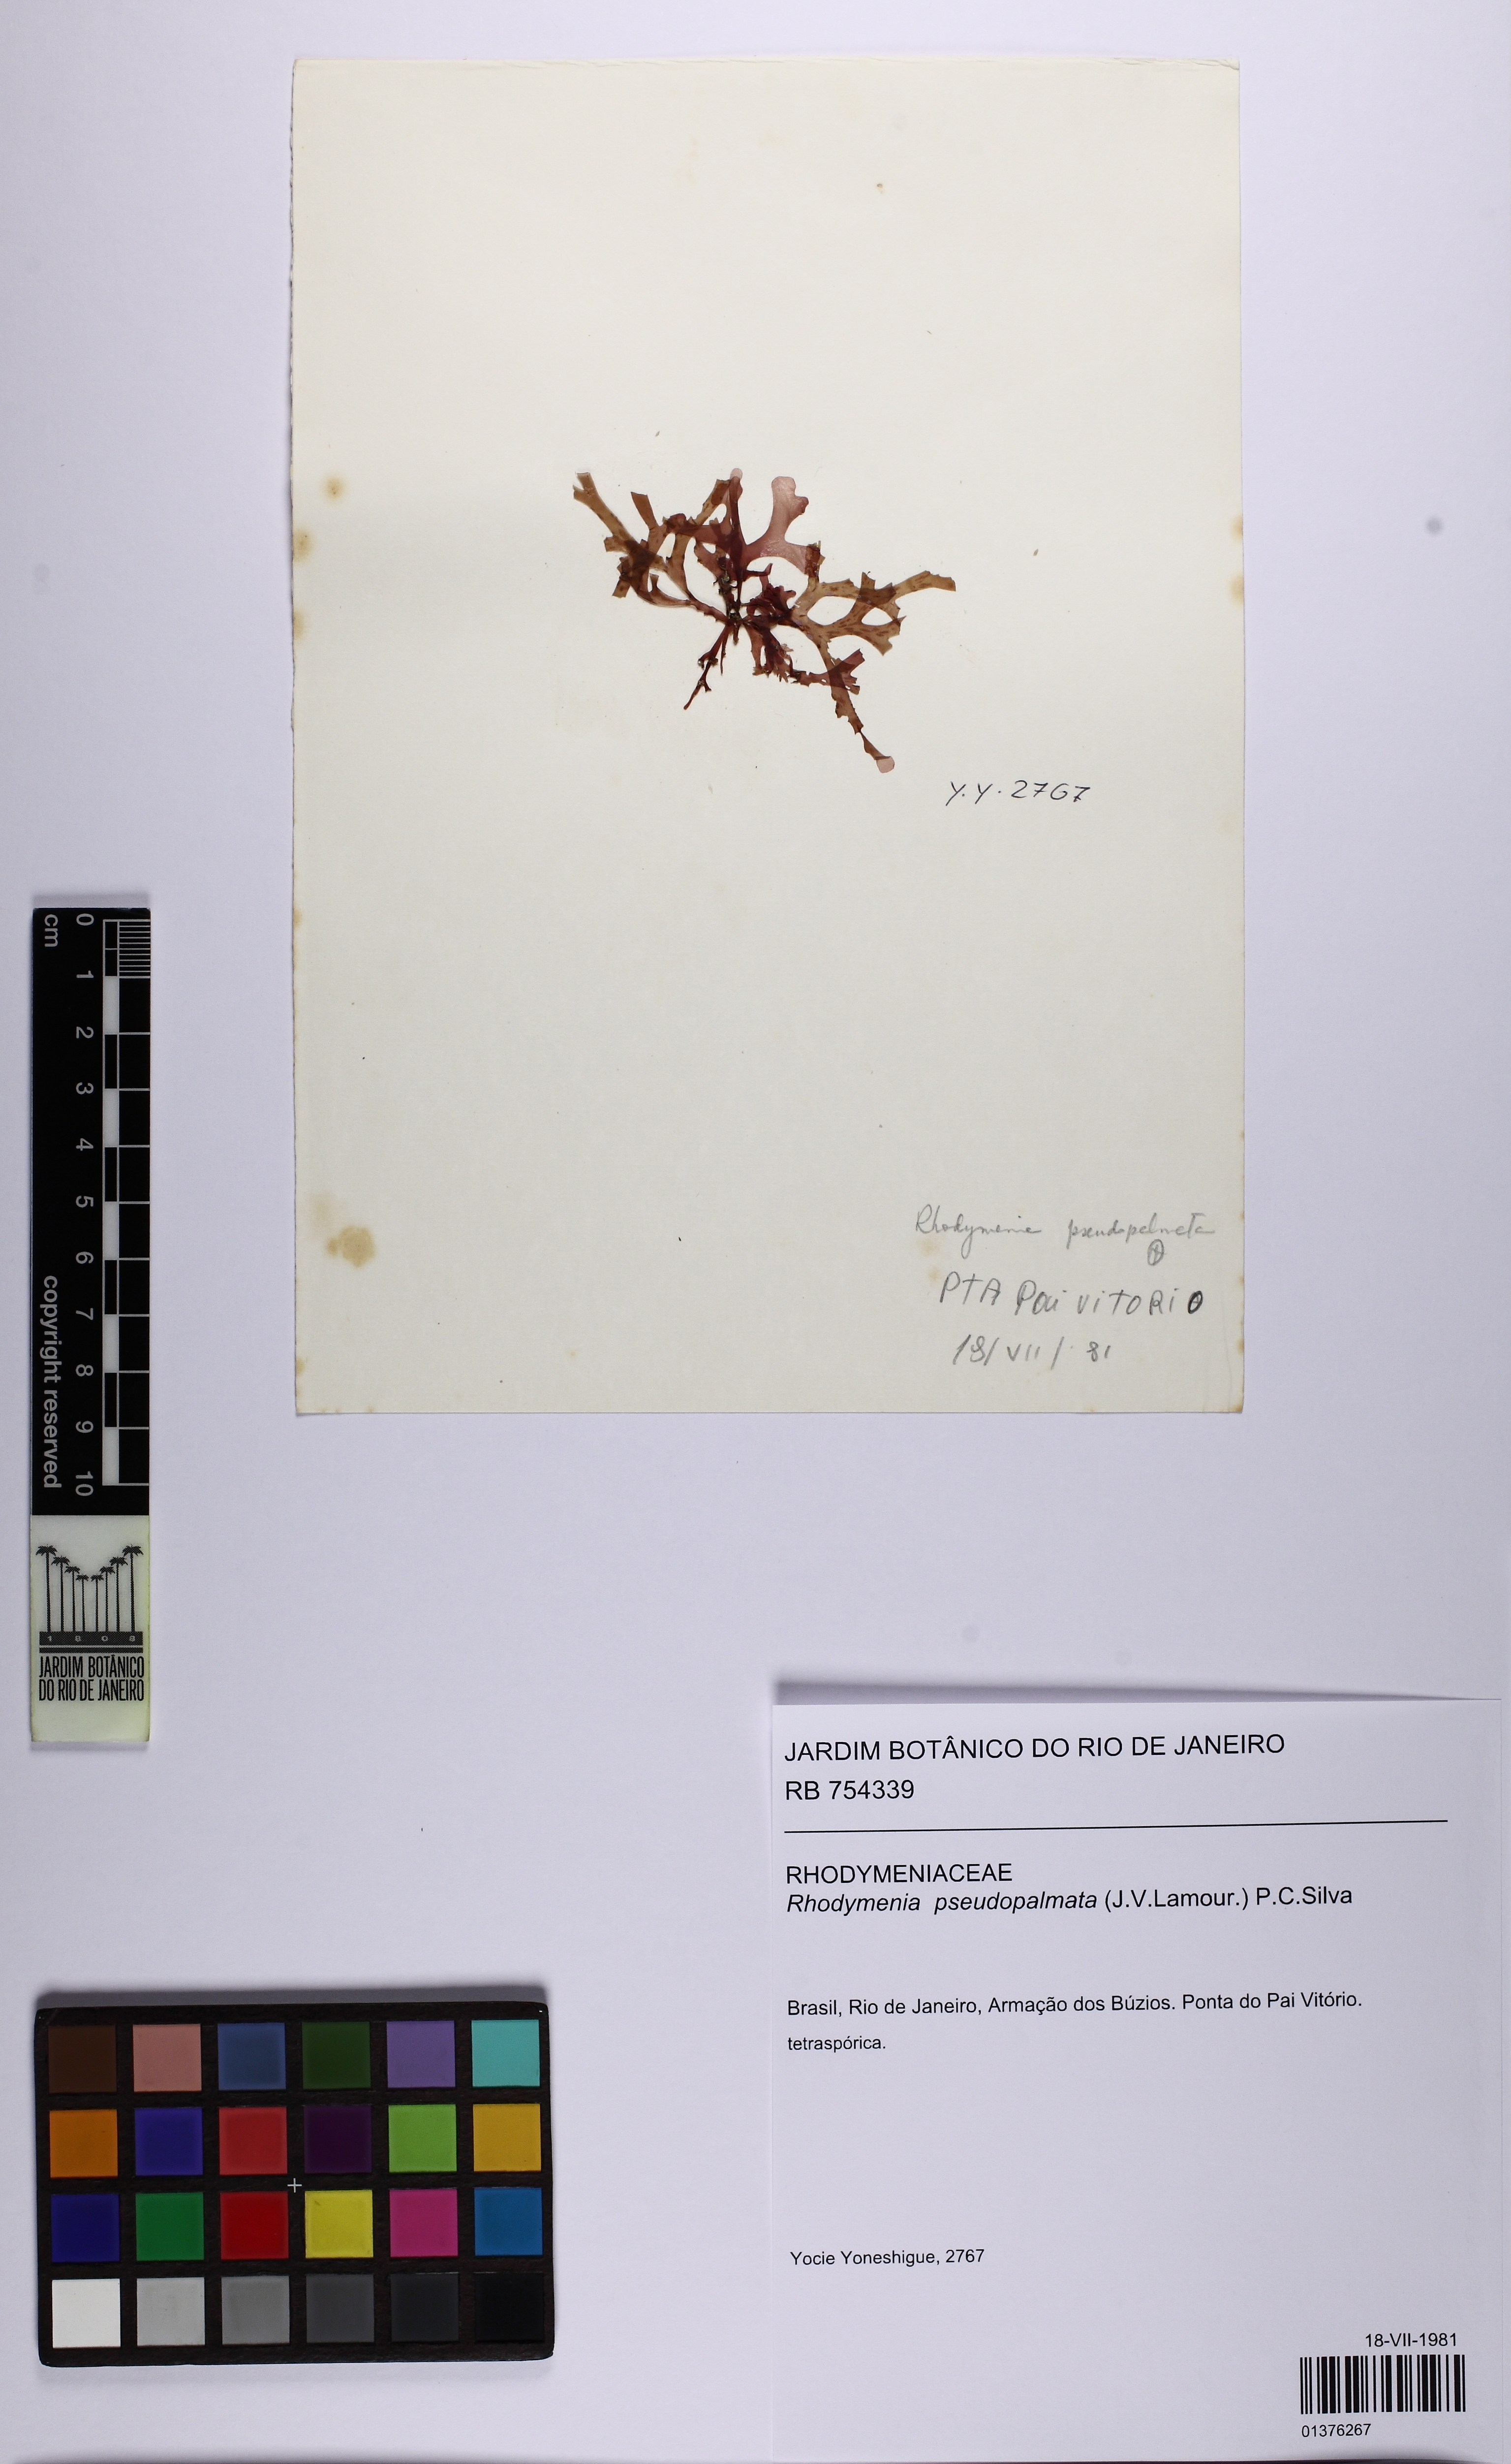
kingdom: Plantae
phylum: Rhodophyta
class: Florideophyceae
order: Rhodymeniales
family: Rhodymeniaceae
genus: Rhodymenia
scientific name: Rhodymenia pseudopalmata
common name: Palmate roseweed
